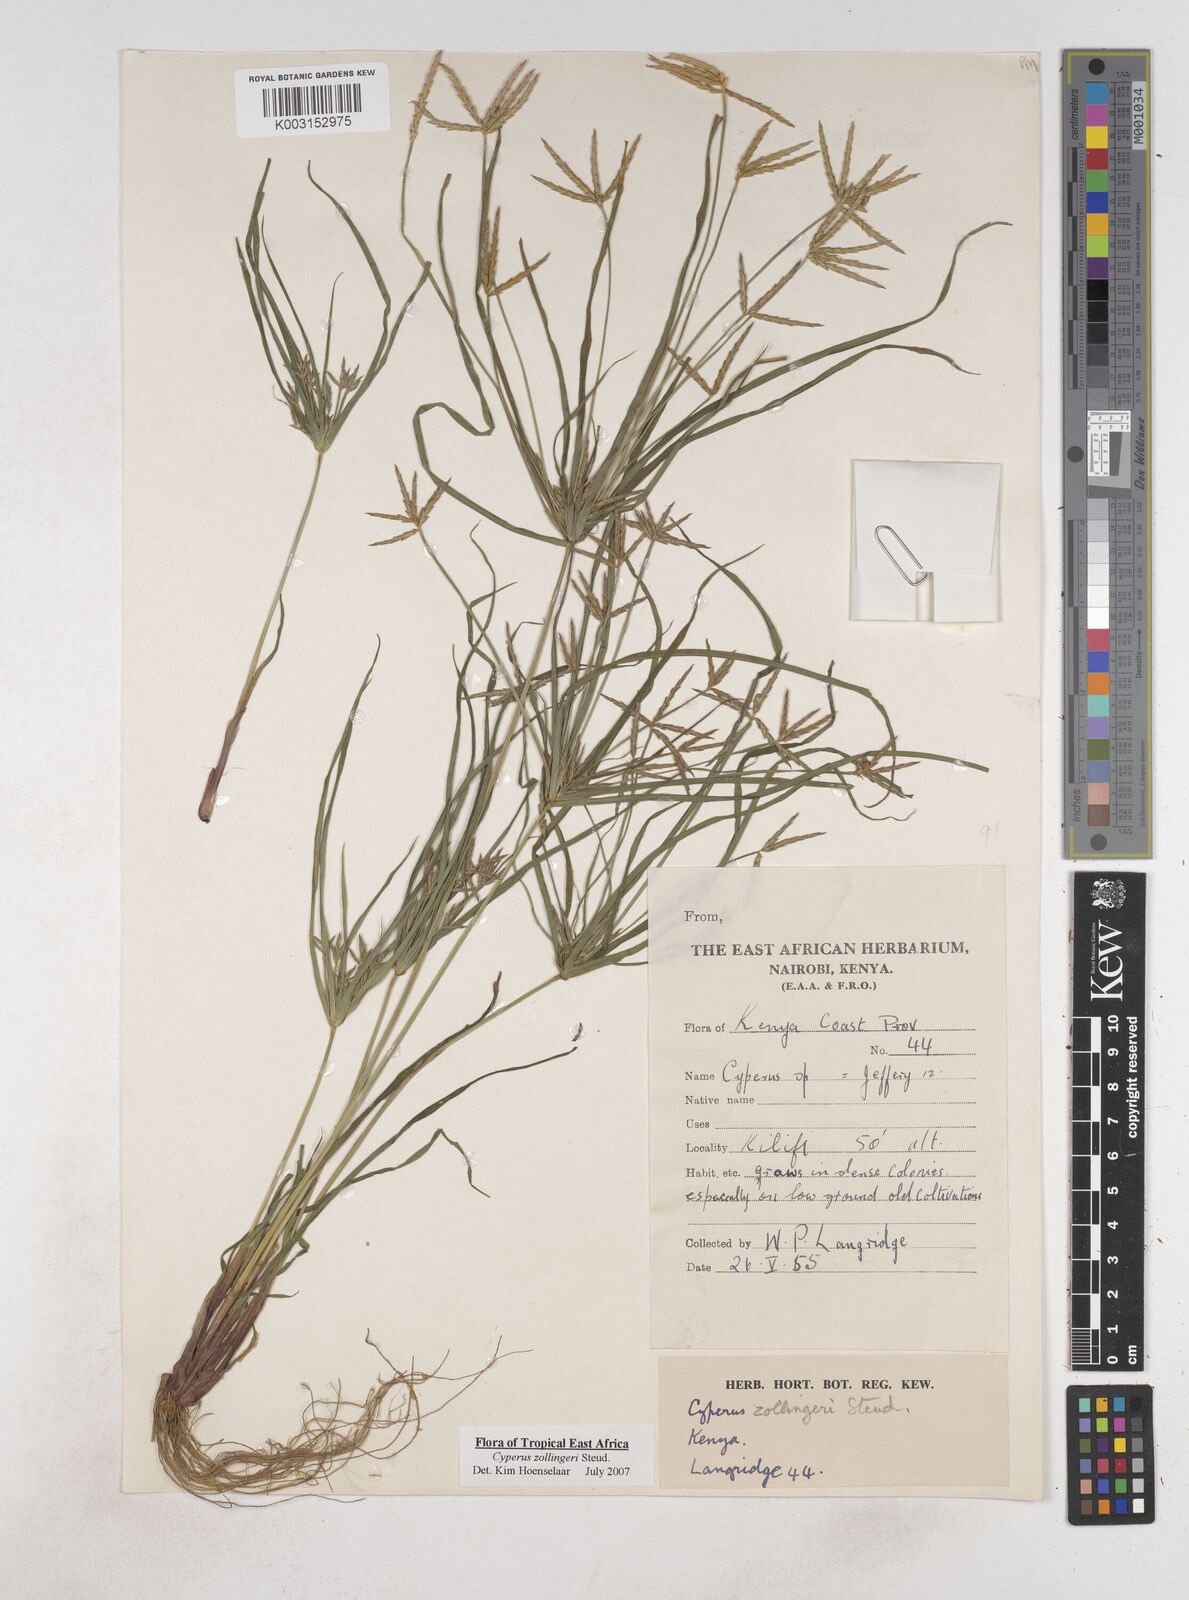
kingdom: Plantae
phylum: Tracheophyta
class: Liliopsida
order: Poales
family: Cyperaceae
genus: Cyperus
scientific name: Cyperus zollingerioides
